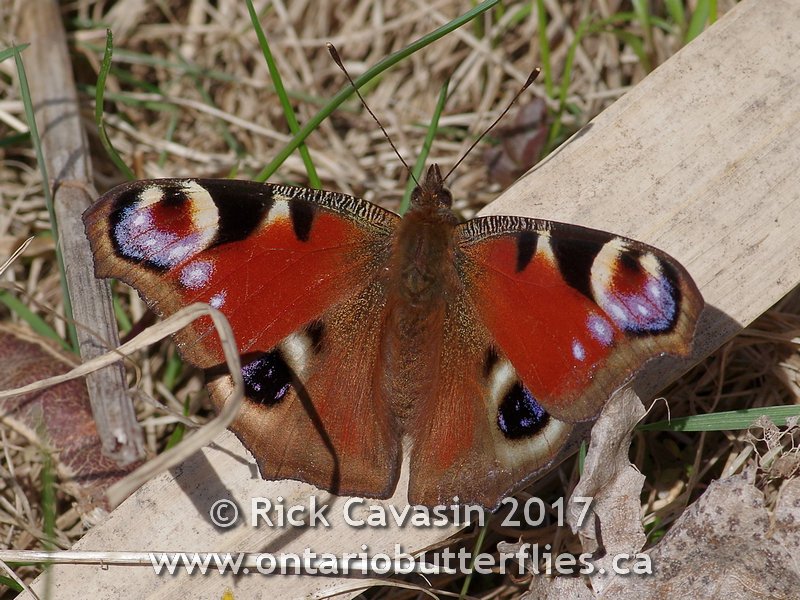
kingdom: Animalia
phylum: Arthropoda
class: Insecta
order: Lepidoptera
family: Nymphalidae
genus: Aglais
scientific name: Aglais io
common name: European Peacock
